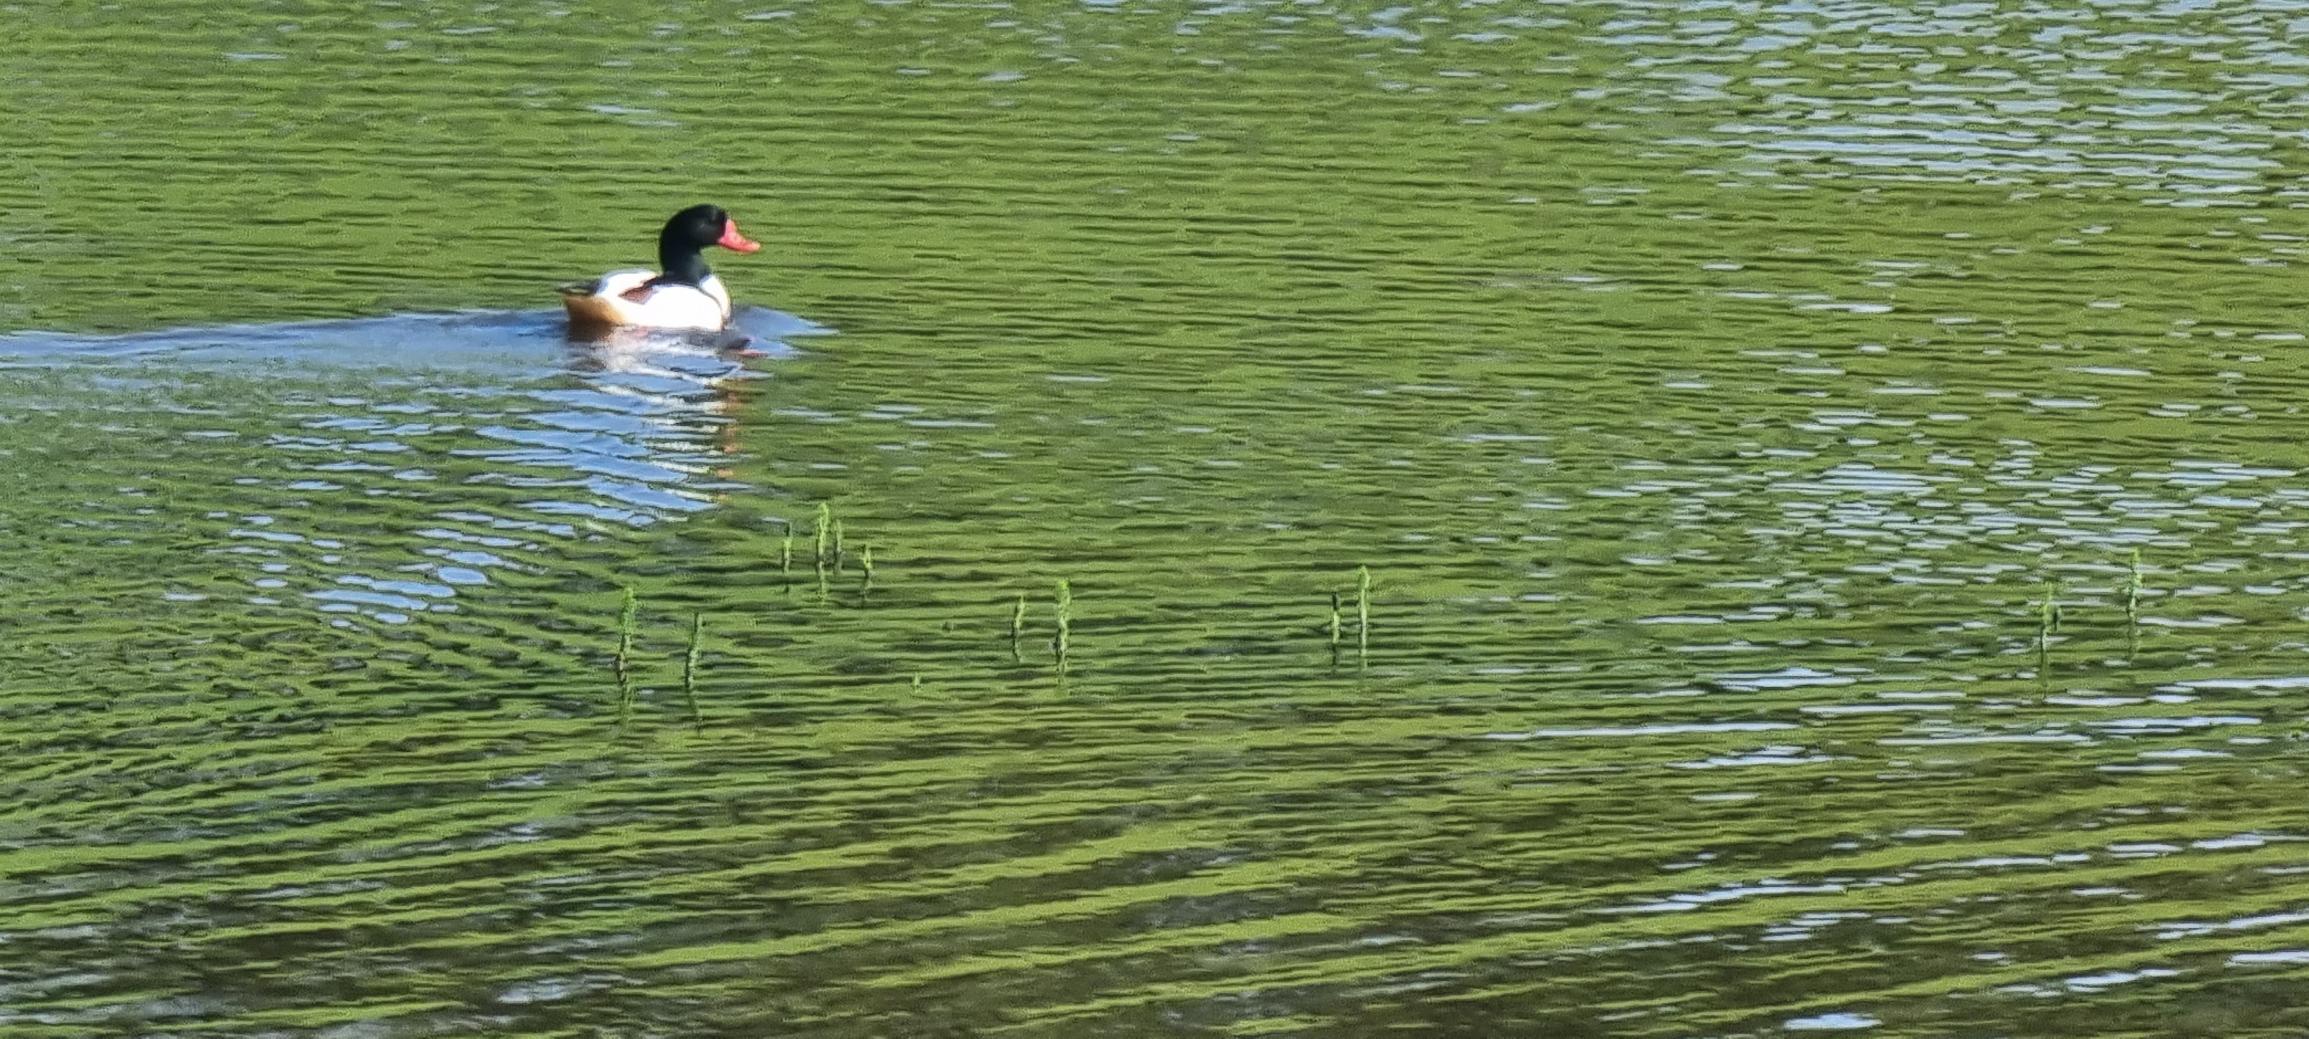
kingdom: Animalia
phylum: Chordata
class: Aves
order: Anseriformes
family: Anatidae
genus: Tadorna
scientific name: Tadorna tadorna
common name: Gravand
